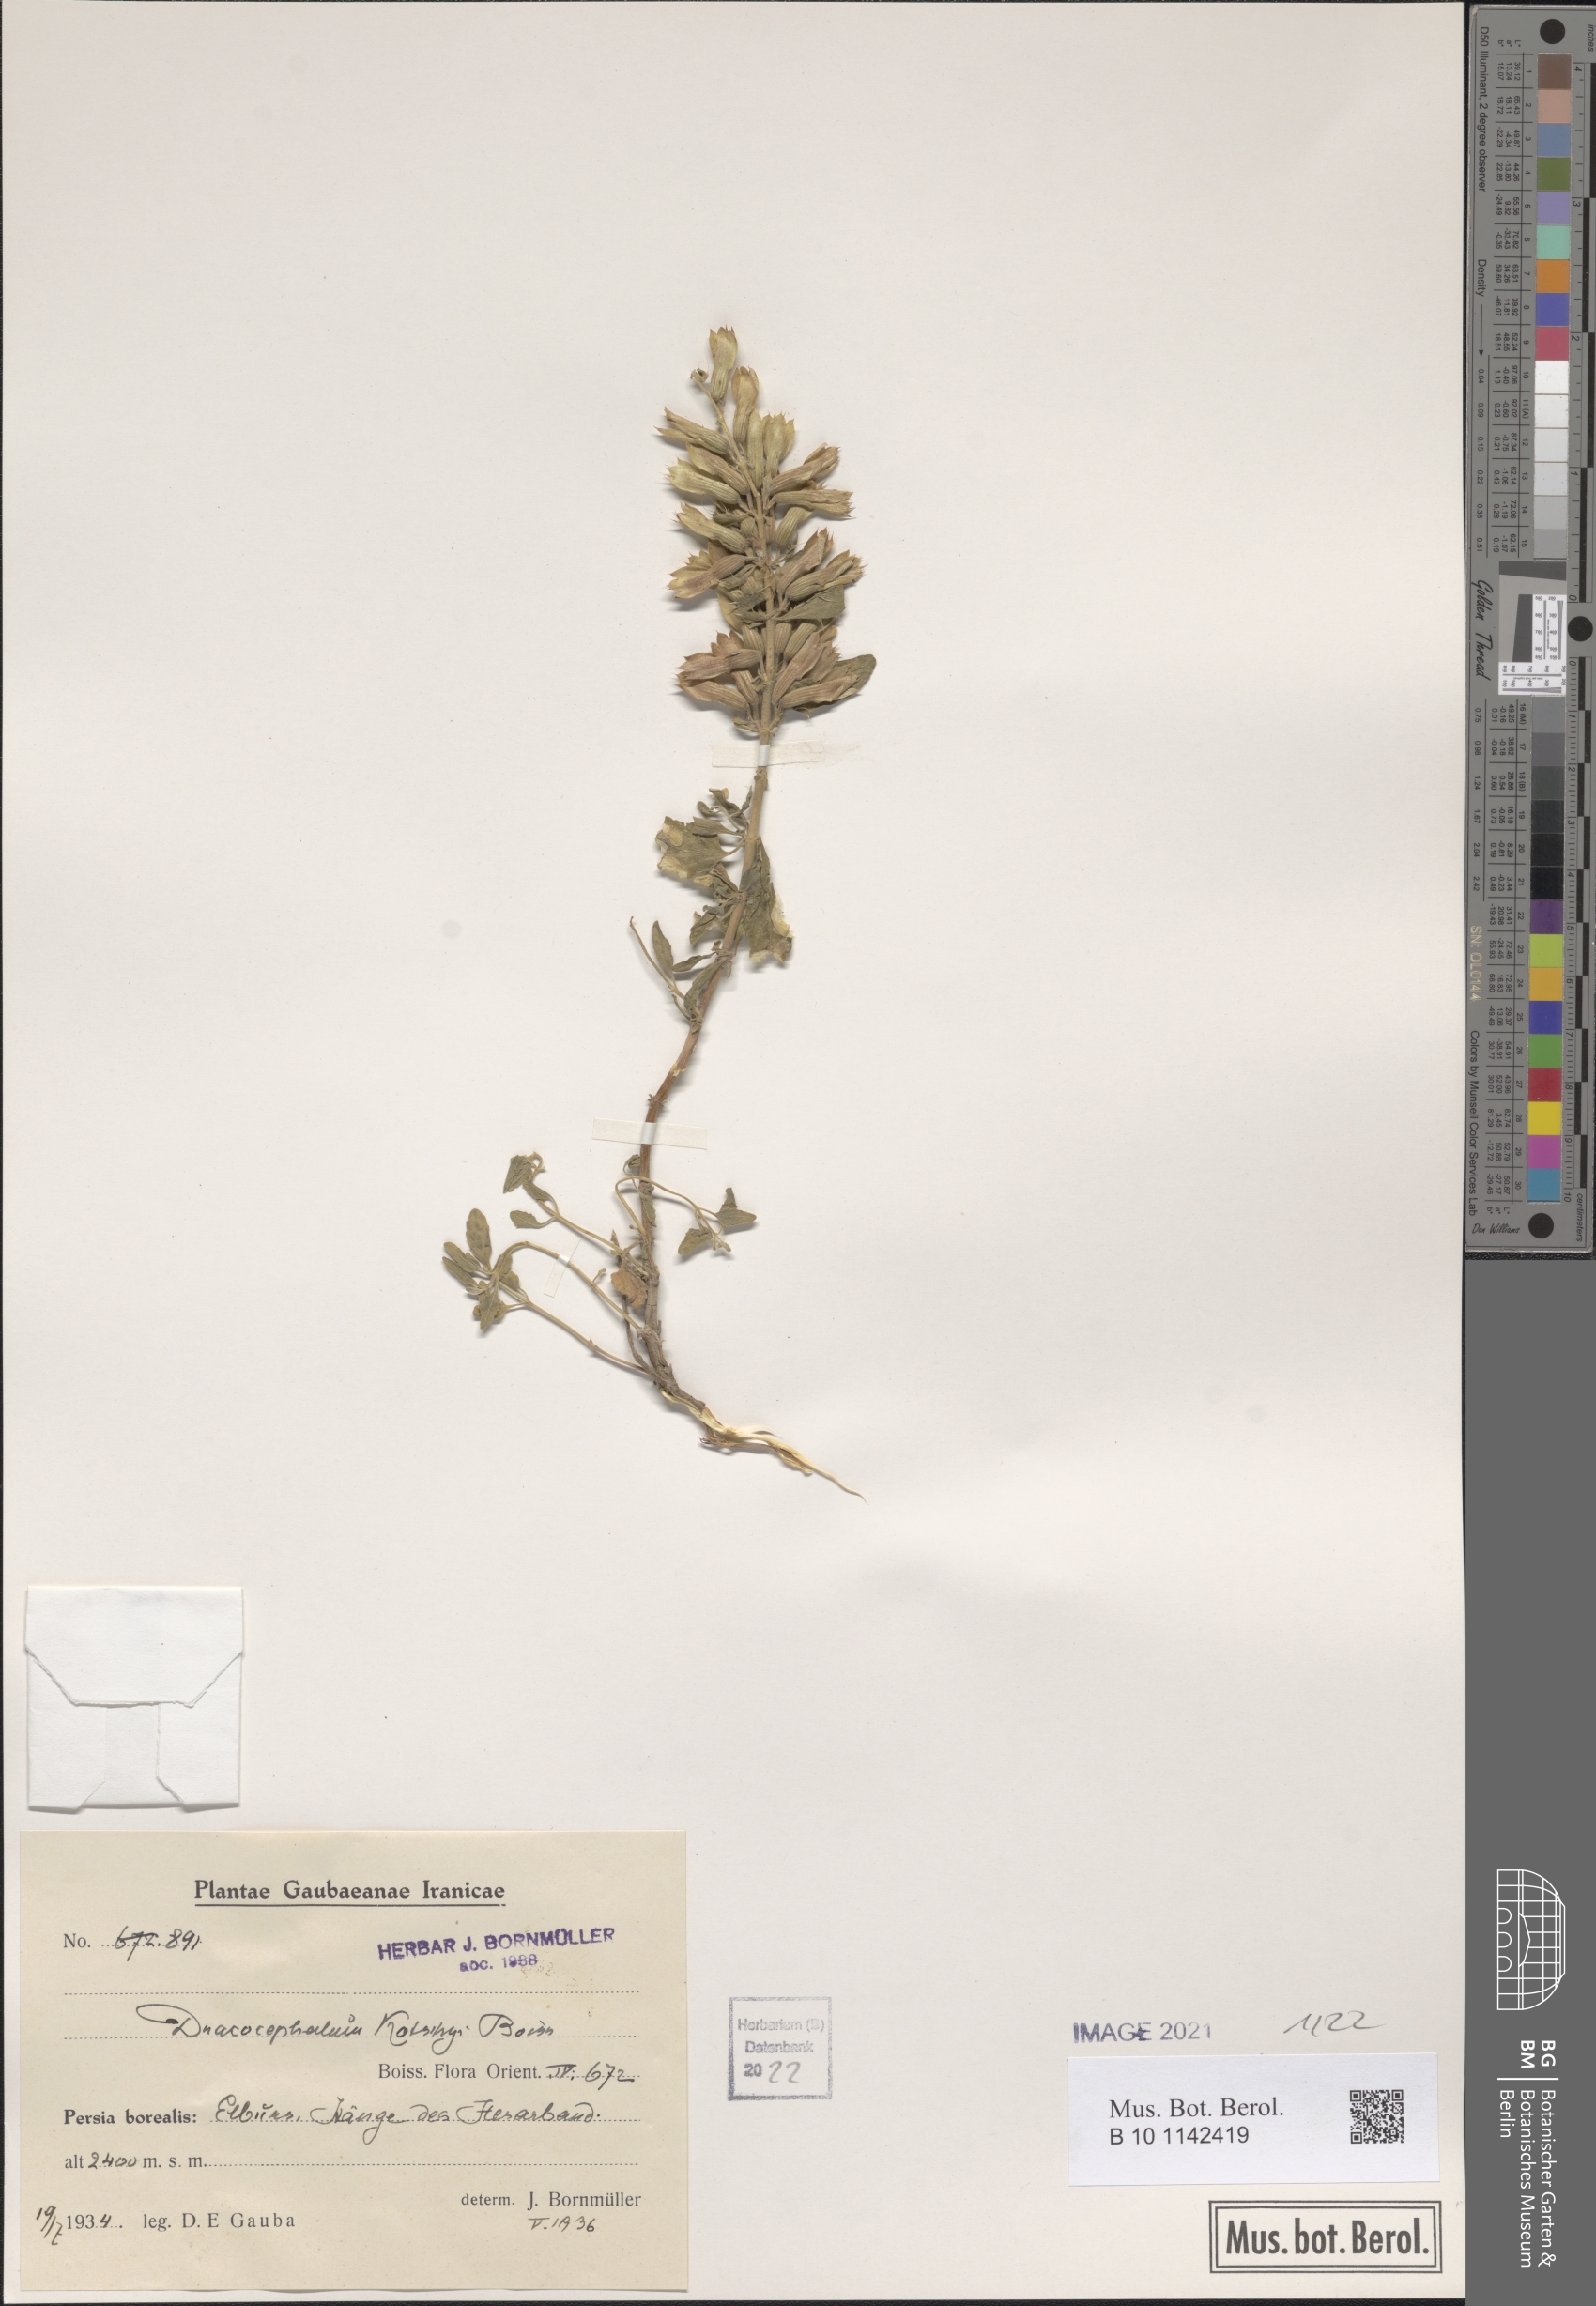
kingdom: Plantae
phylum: Tracheophyta
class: Magnoliopsida
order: Lamiales
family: Lamiaceae
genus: Dracocephalum
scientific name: Dracocephalum kotschyi
